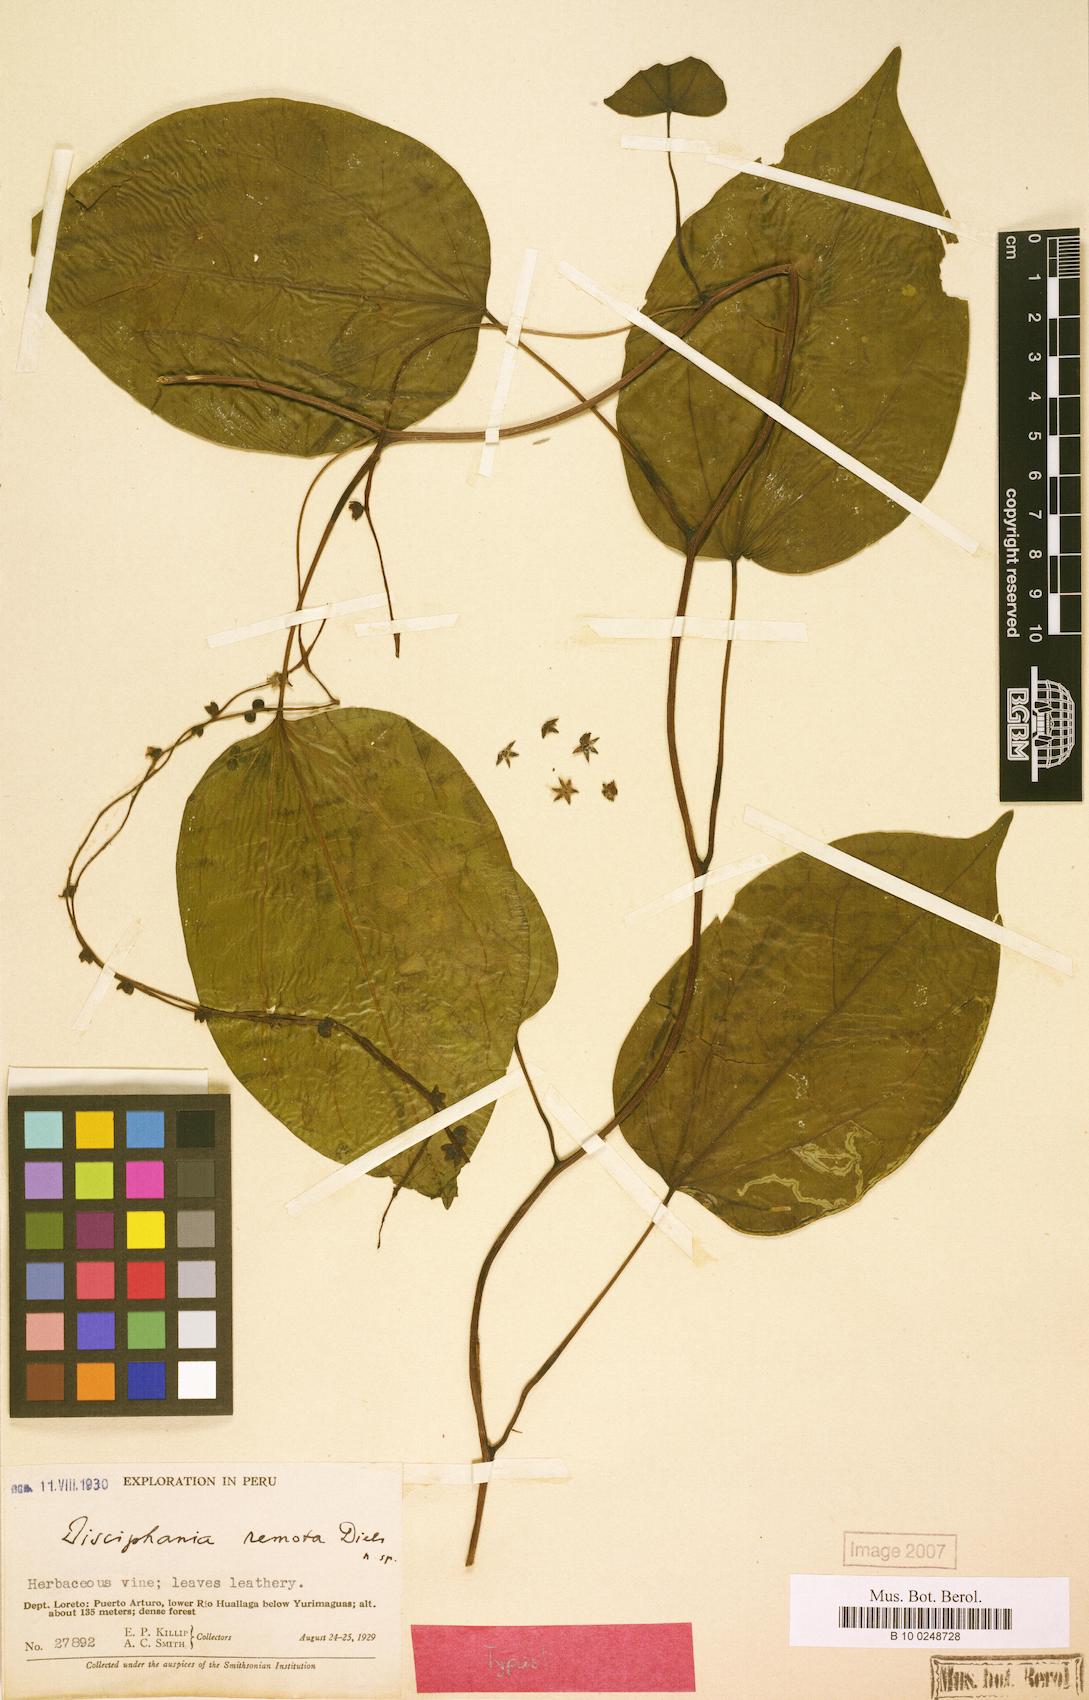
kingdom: Plantae
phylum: Tracheophyta
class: Magnoliopsida
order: Ranunculales
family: Menispermaceae
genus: Disciphania
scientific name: Disciphania remota
